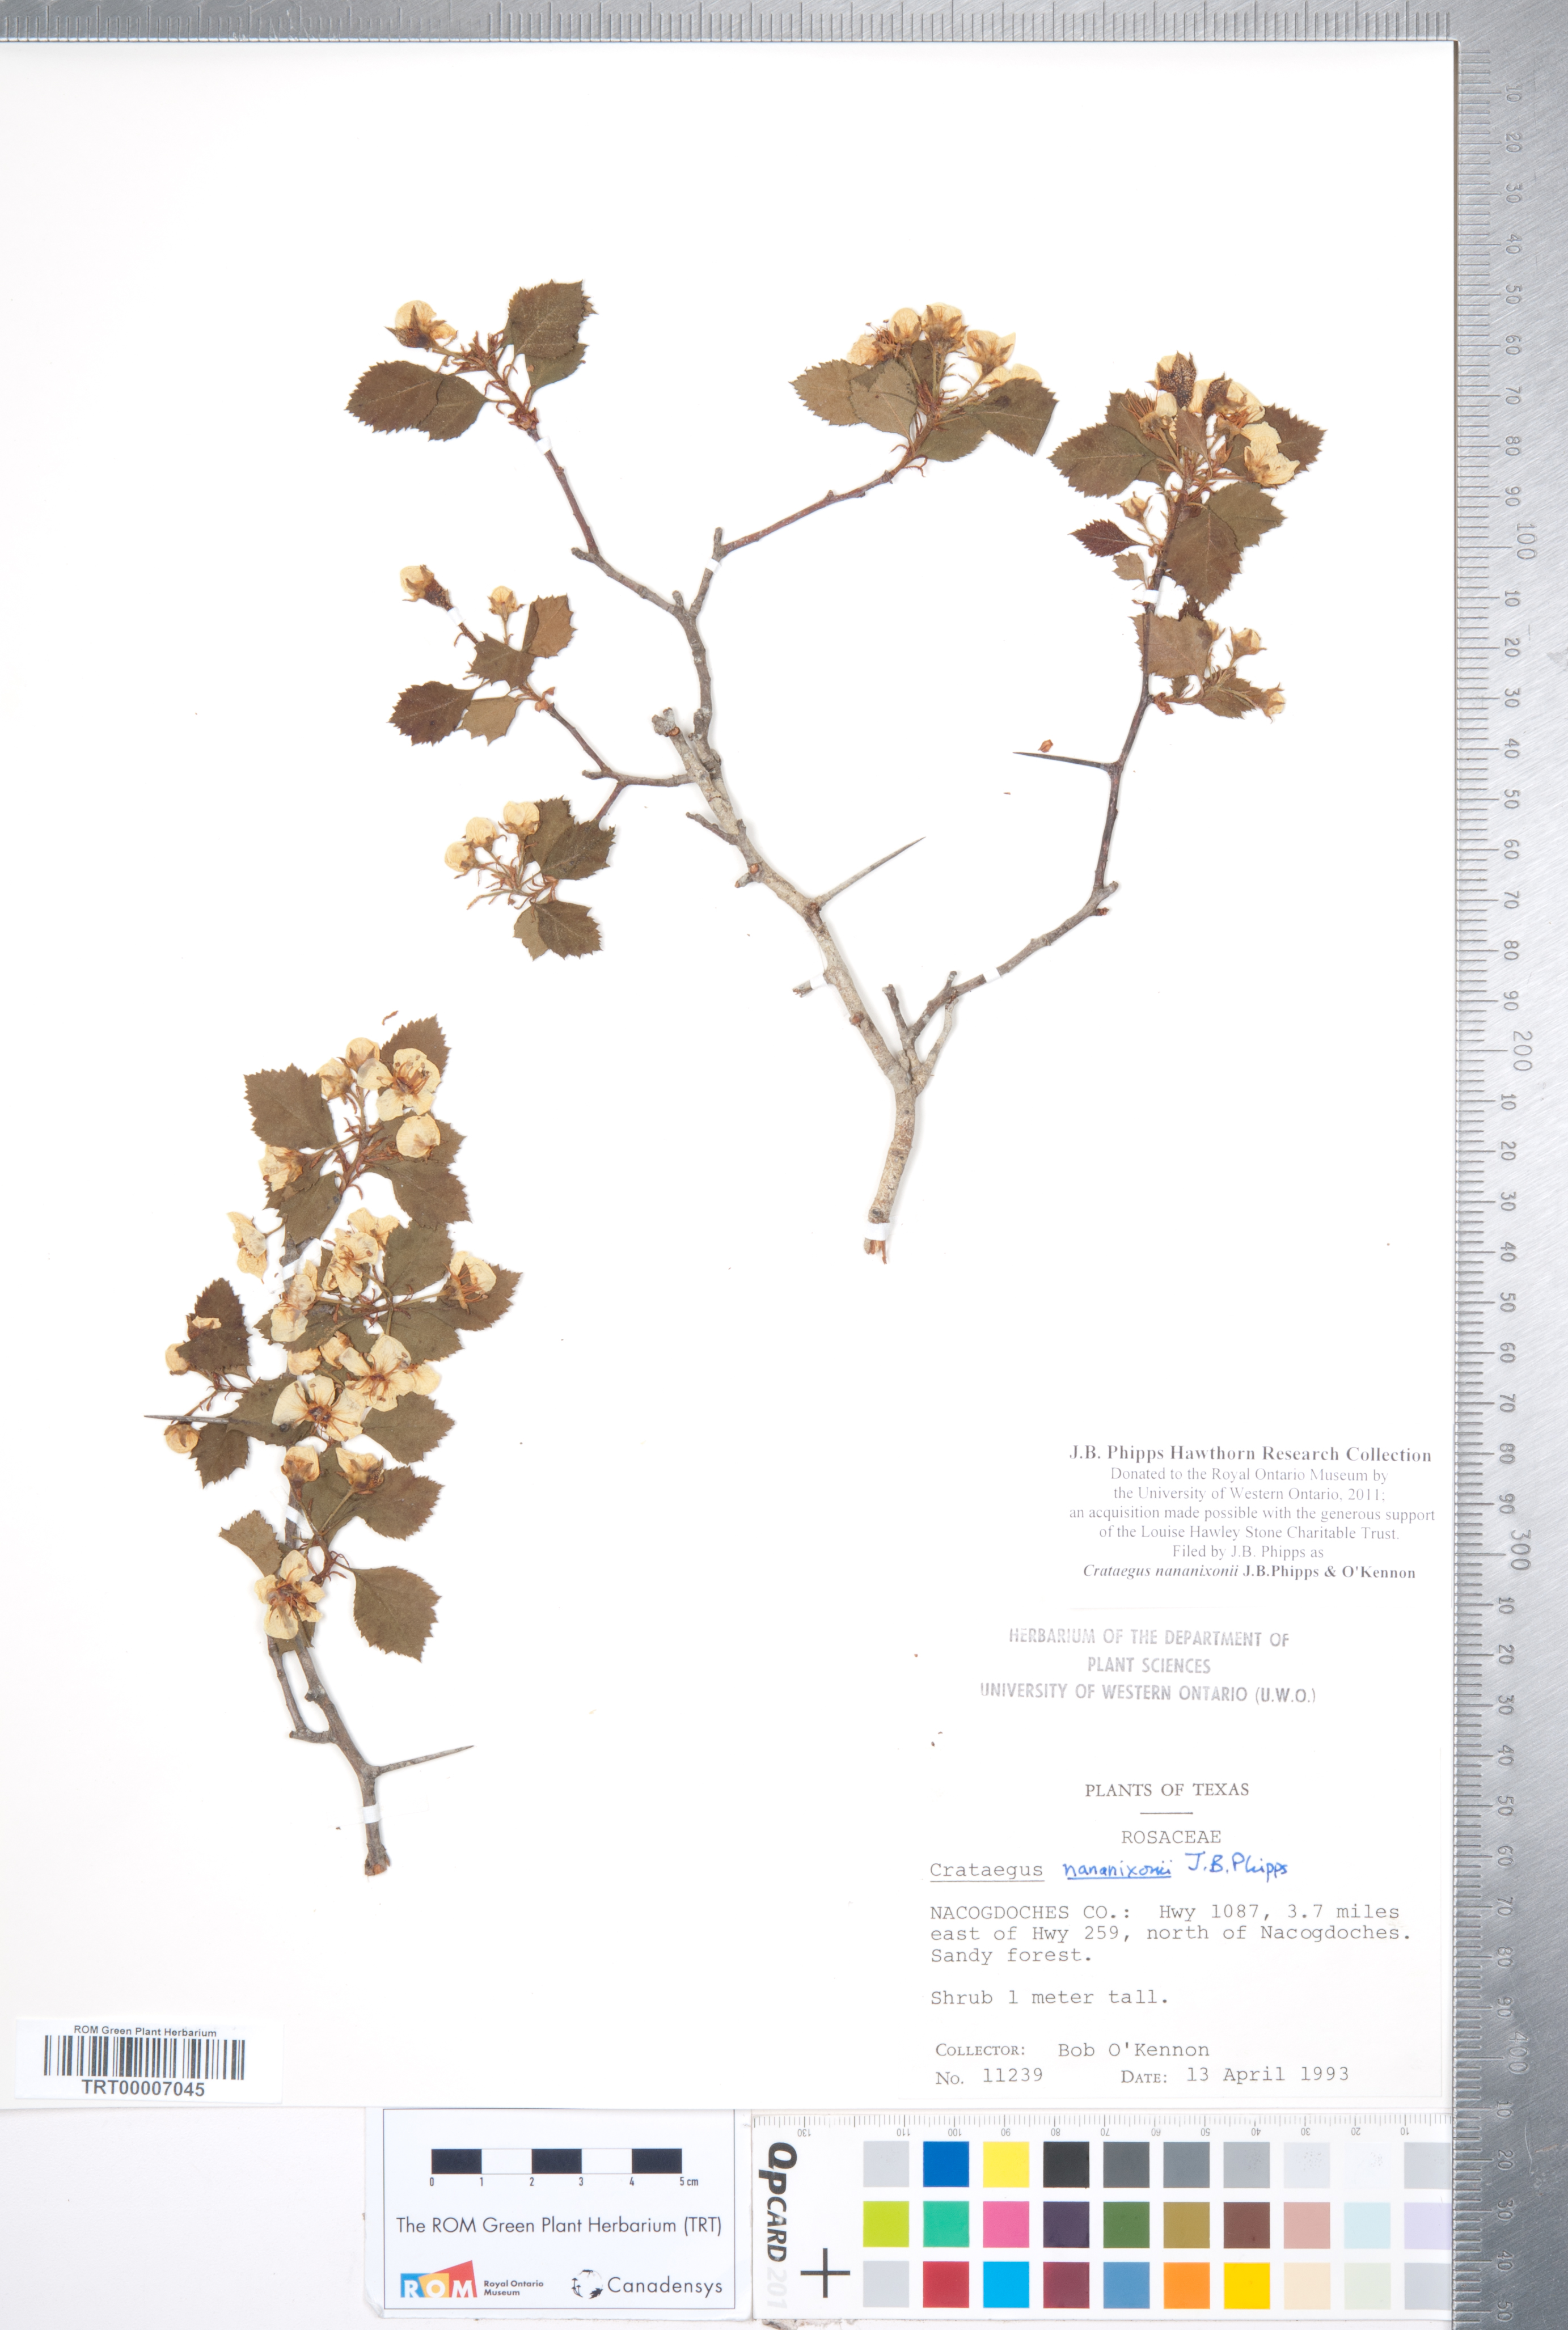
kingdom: Plantae
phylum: Tracheophyta
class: Magnoliopsida
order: Rosales
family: Rosaceae
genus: Crataegus
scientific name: Crataegus nananixonii
